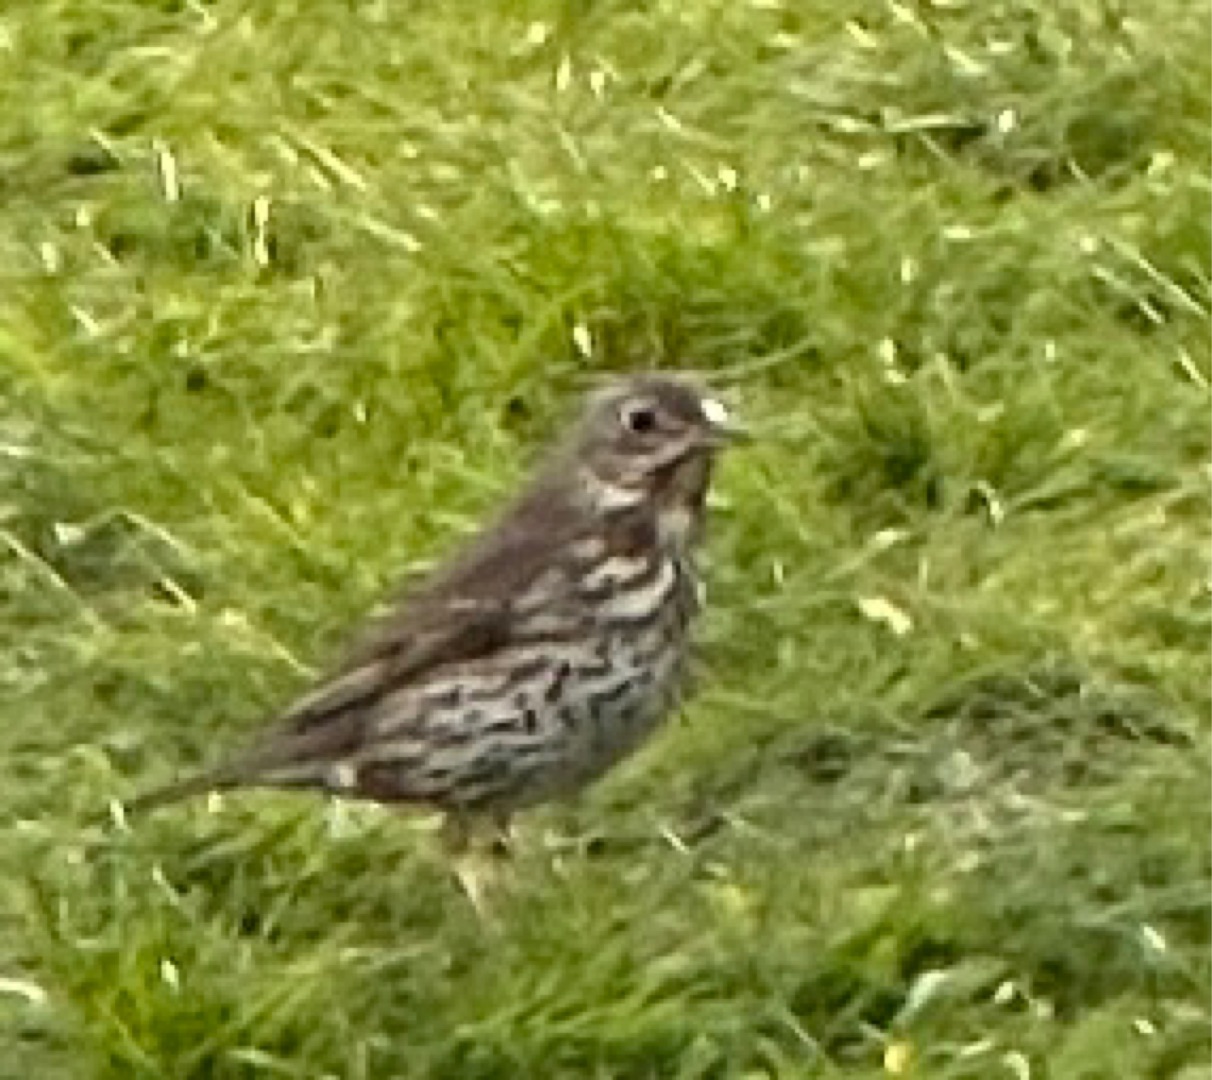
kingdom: Animalia
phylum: Chordata
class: Aves
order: Passeriformes
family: Turdidae
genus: Turdus
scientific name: Turdus philomelos
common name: Sangdrossel
